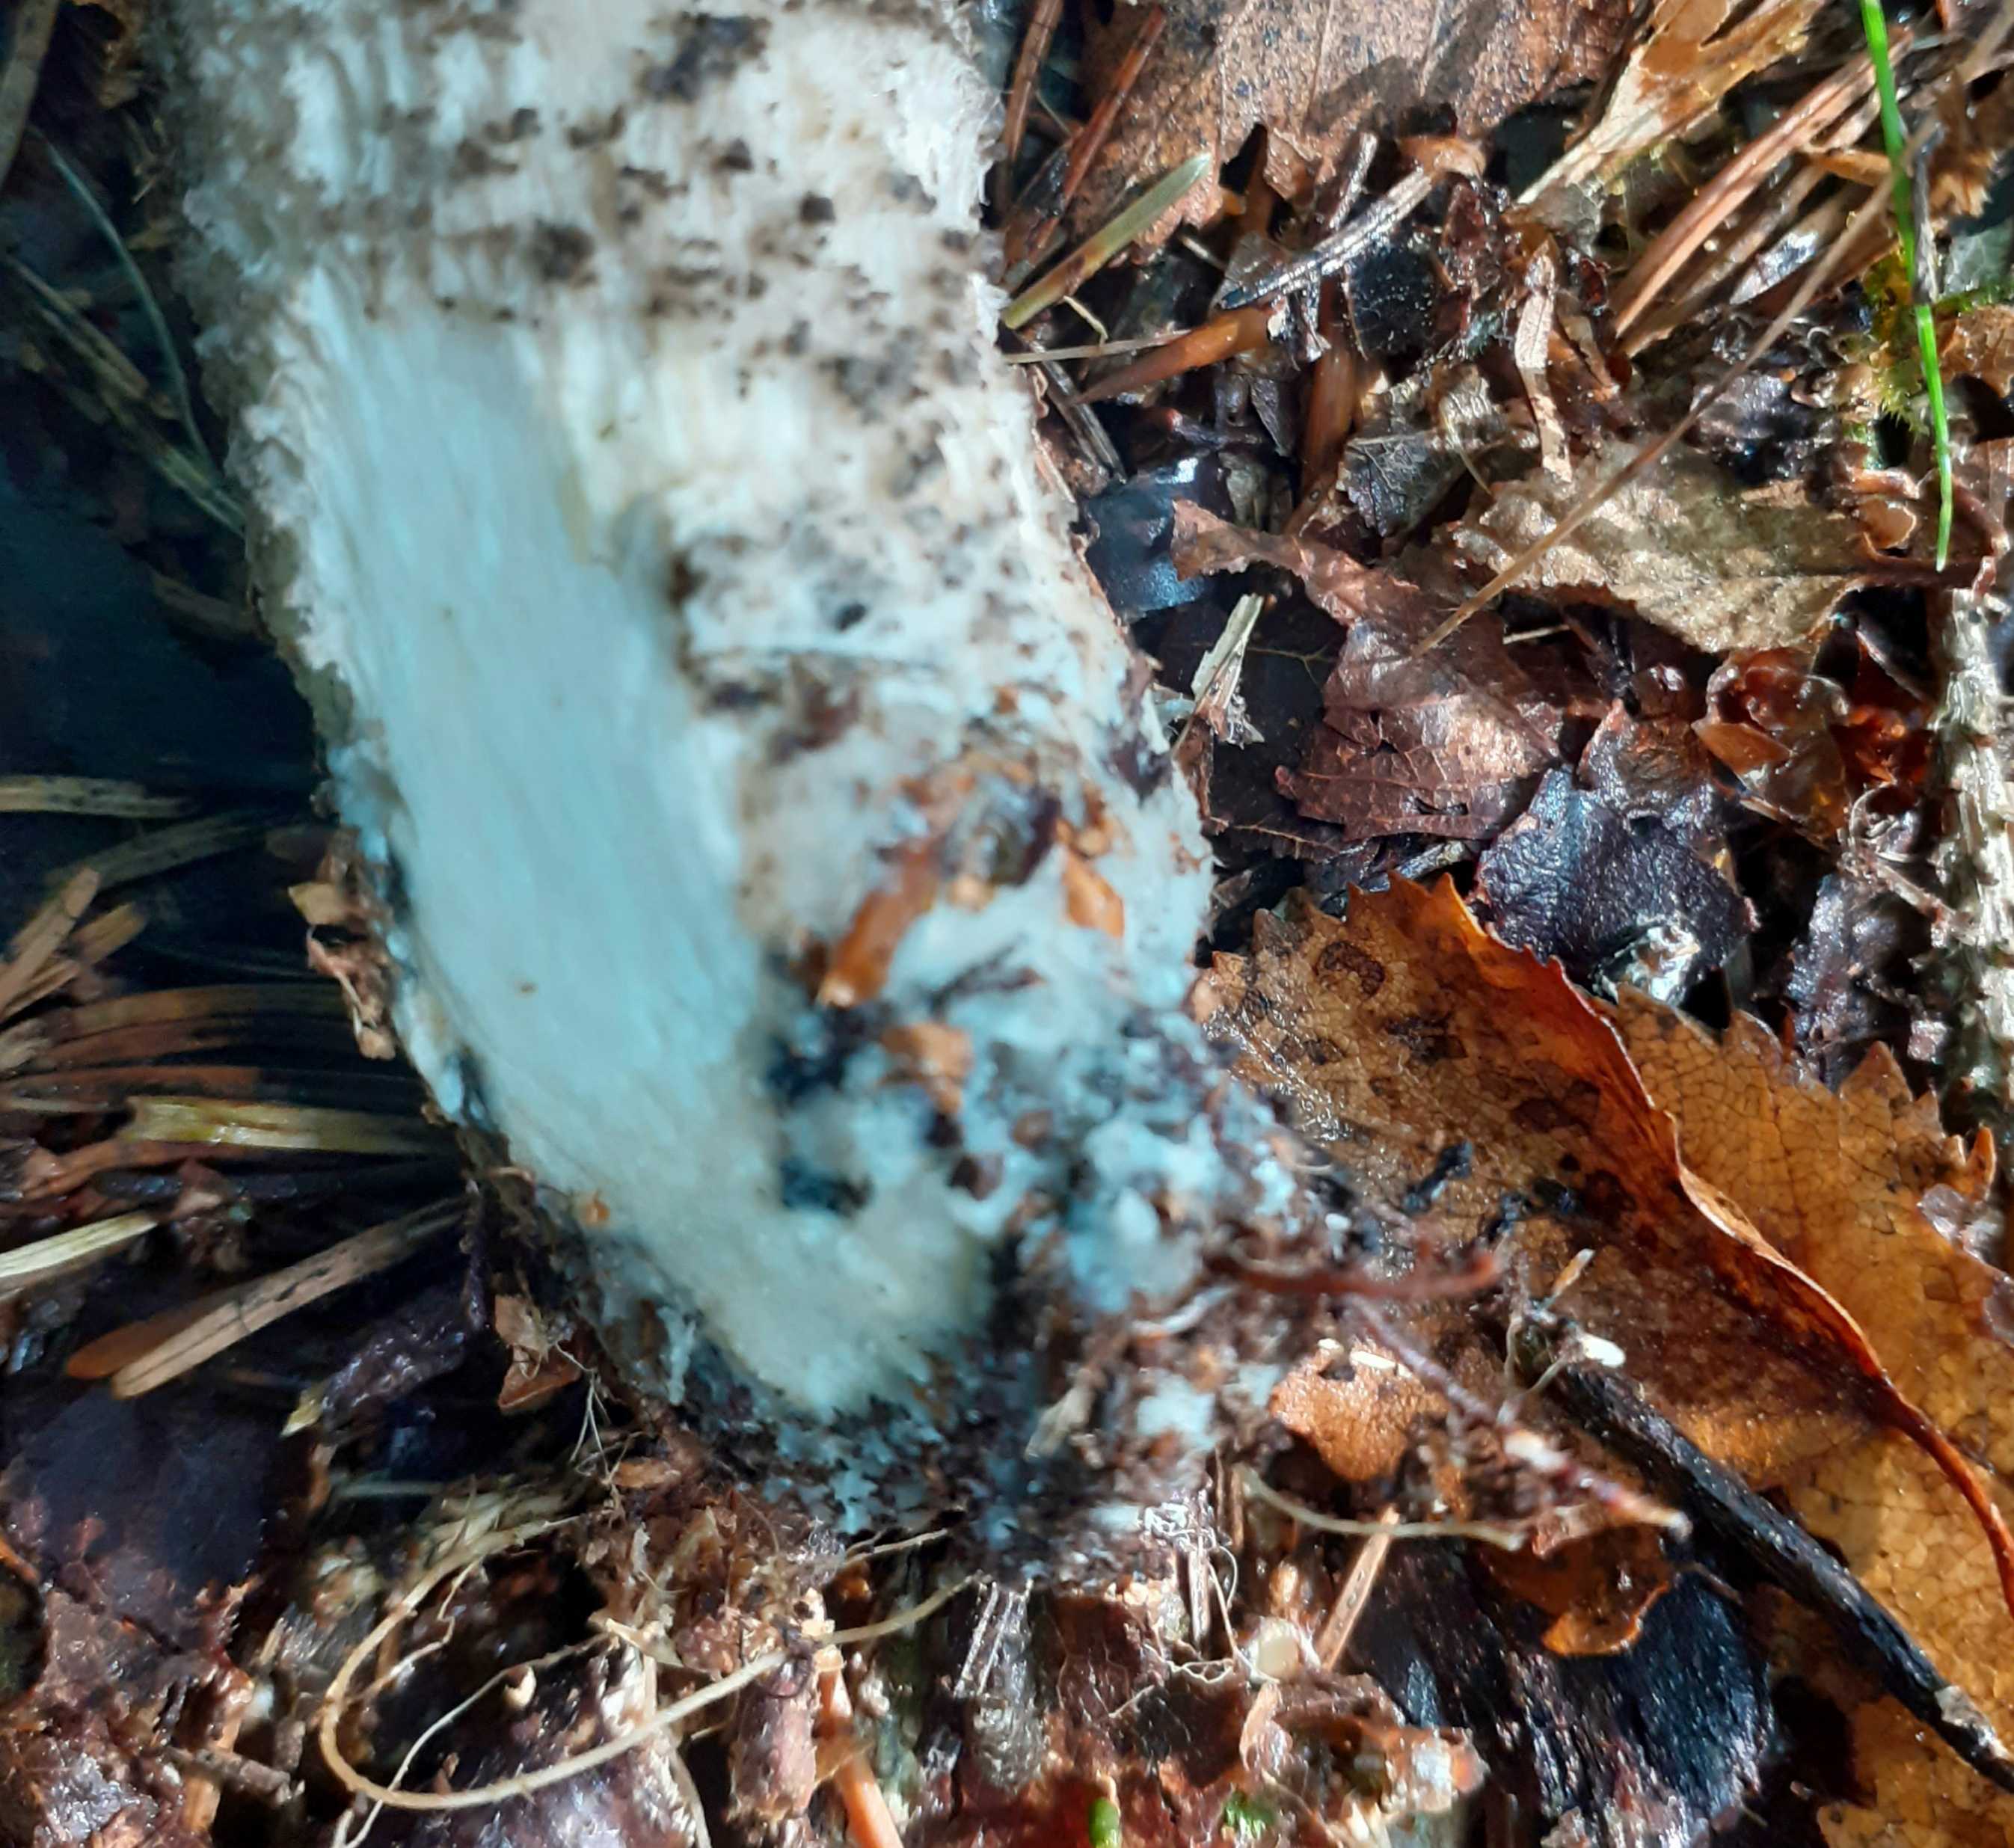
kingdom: Fungi
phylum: Basidiomycota
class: Agaricomycetes
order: Boletales
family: Boletaceae
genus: Leccinum
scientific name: Leccinum cyaneobasileucum
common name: almindelig skælrørhat
